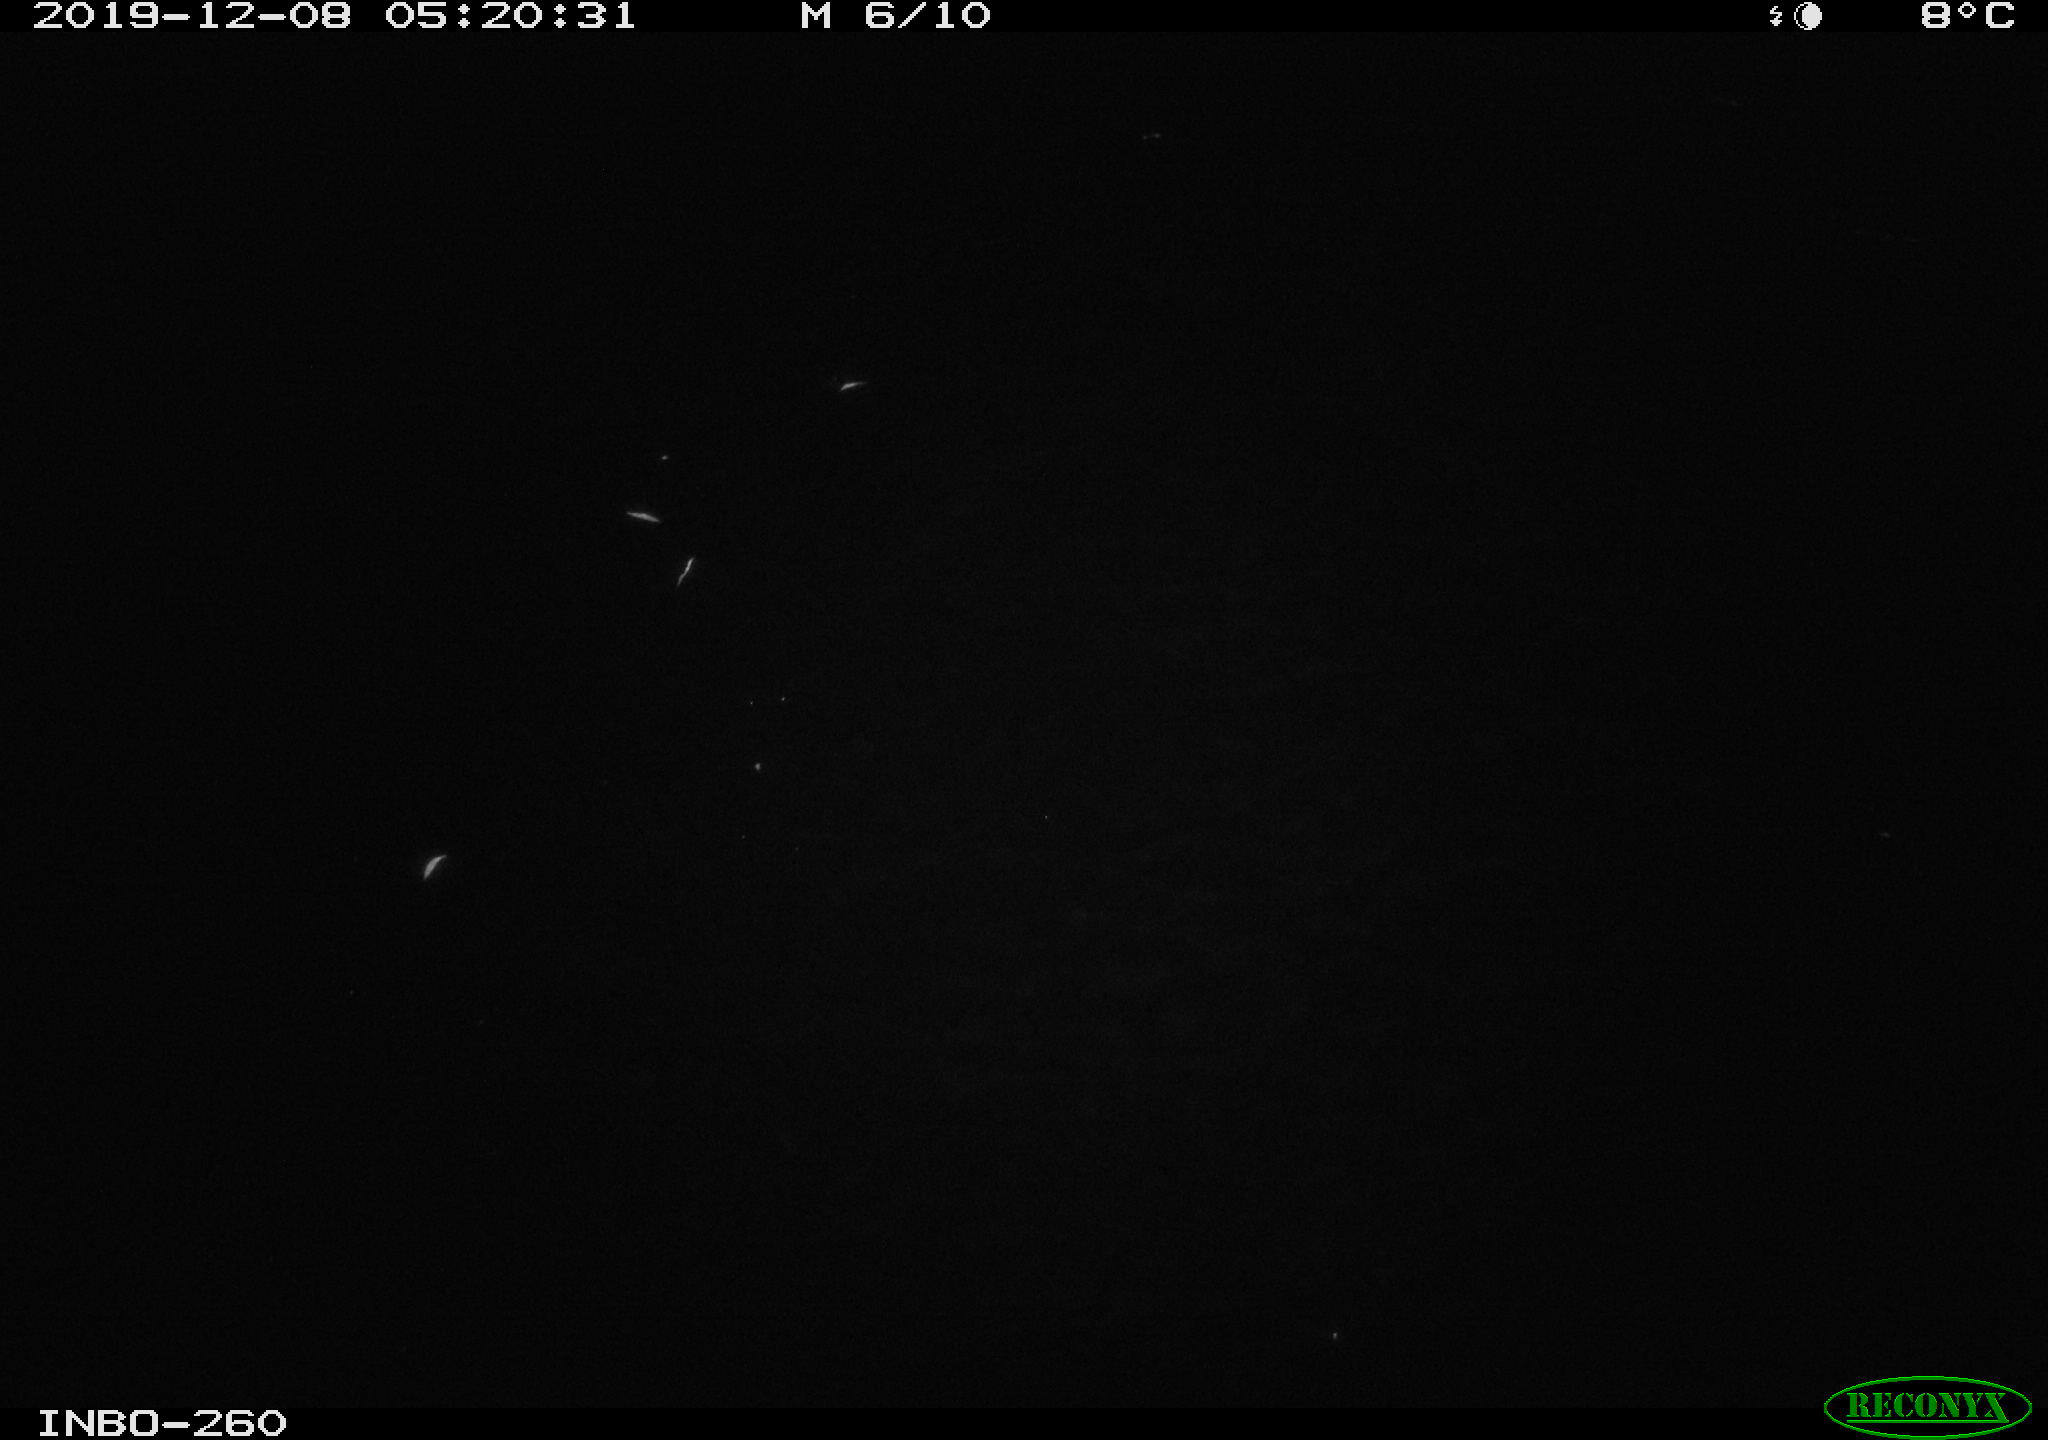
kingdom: Animalia
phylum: Chordata
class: Aves
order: Anseriformes
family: Anatidae
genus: Anas
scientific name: Anas platyrhynchos
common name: Mallard
